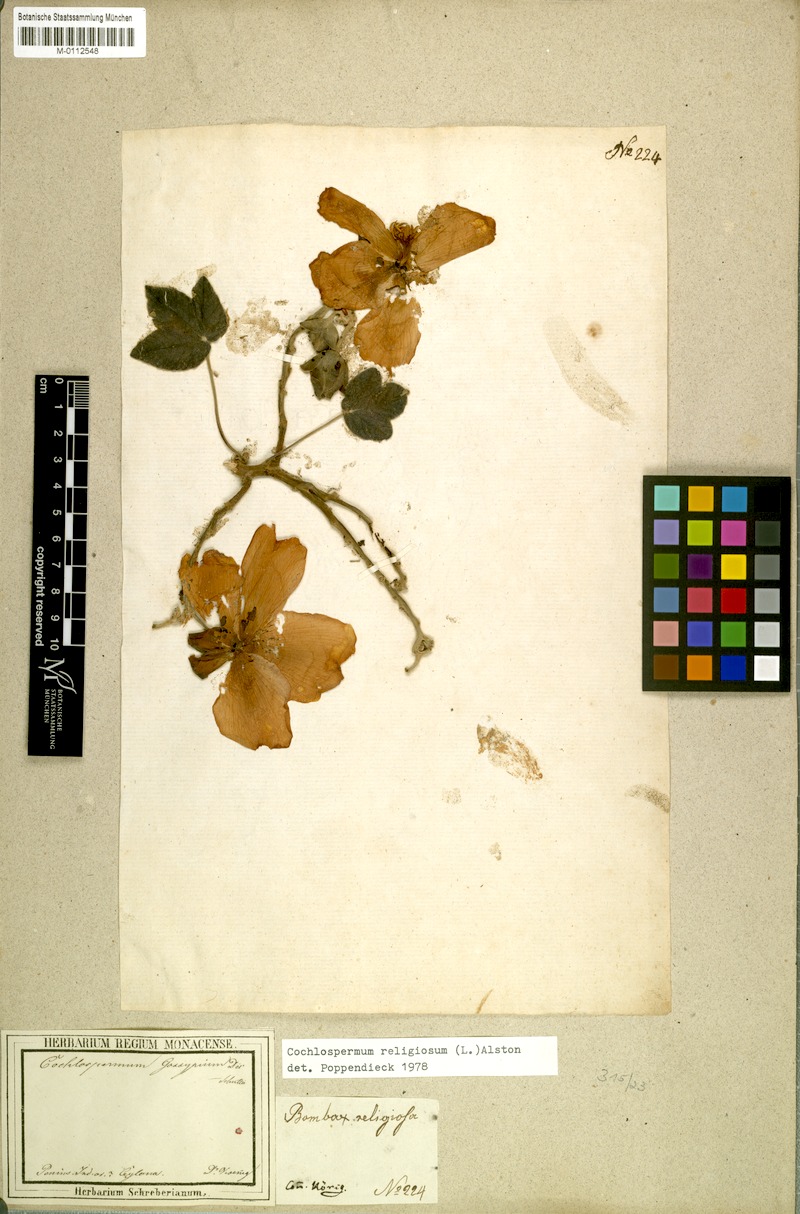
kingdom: Plantae
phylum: Tracheophyta
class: Magnoliopsida
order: Malvales
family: Cochlospermaceae
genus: Cochlospermum
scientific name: Cochlospermum religiosum
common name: Cottontree
